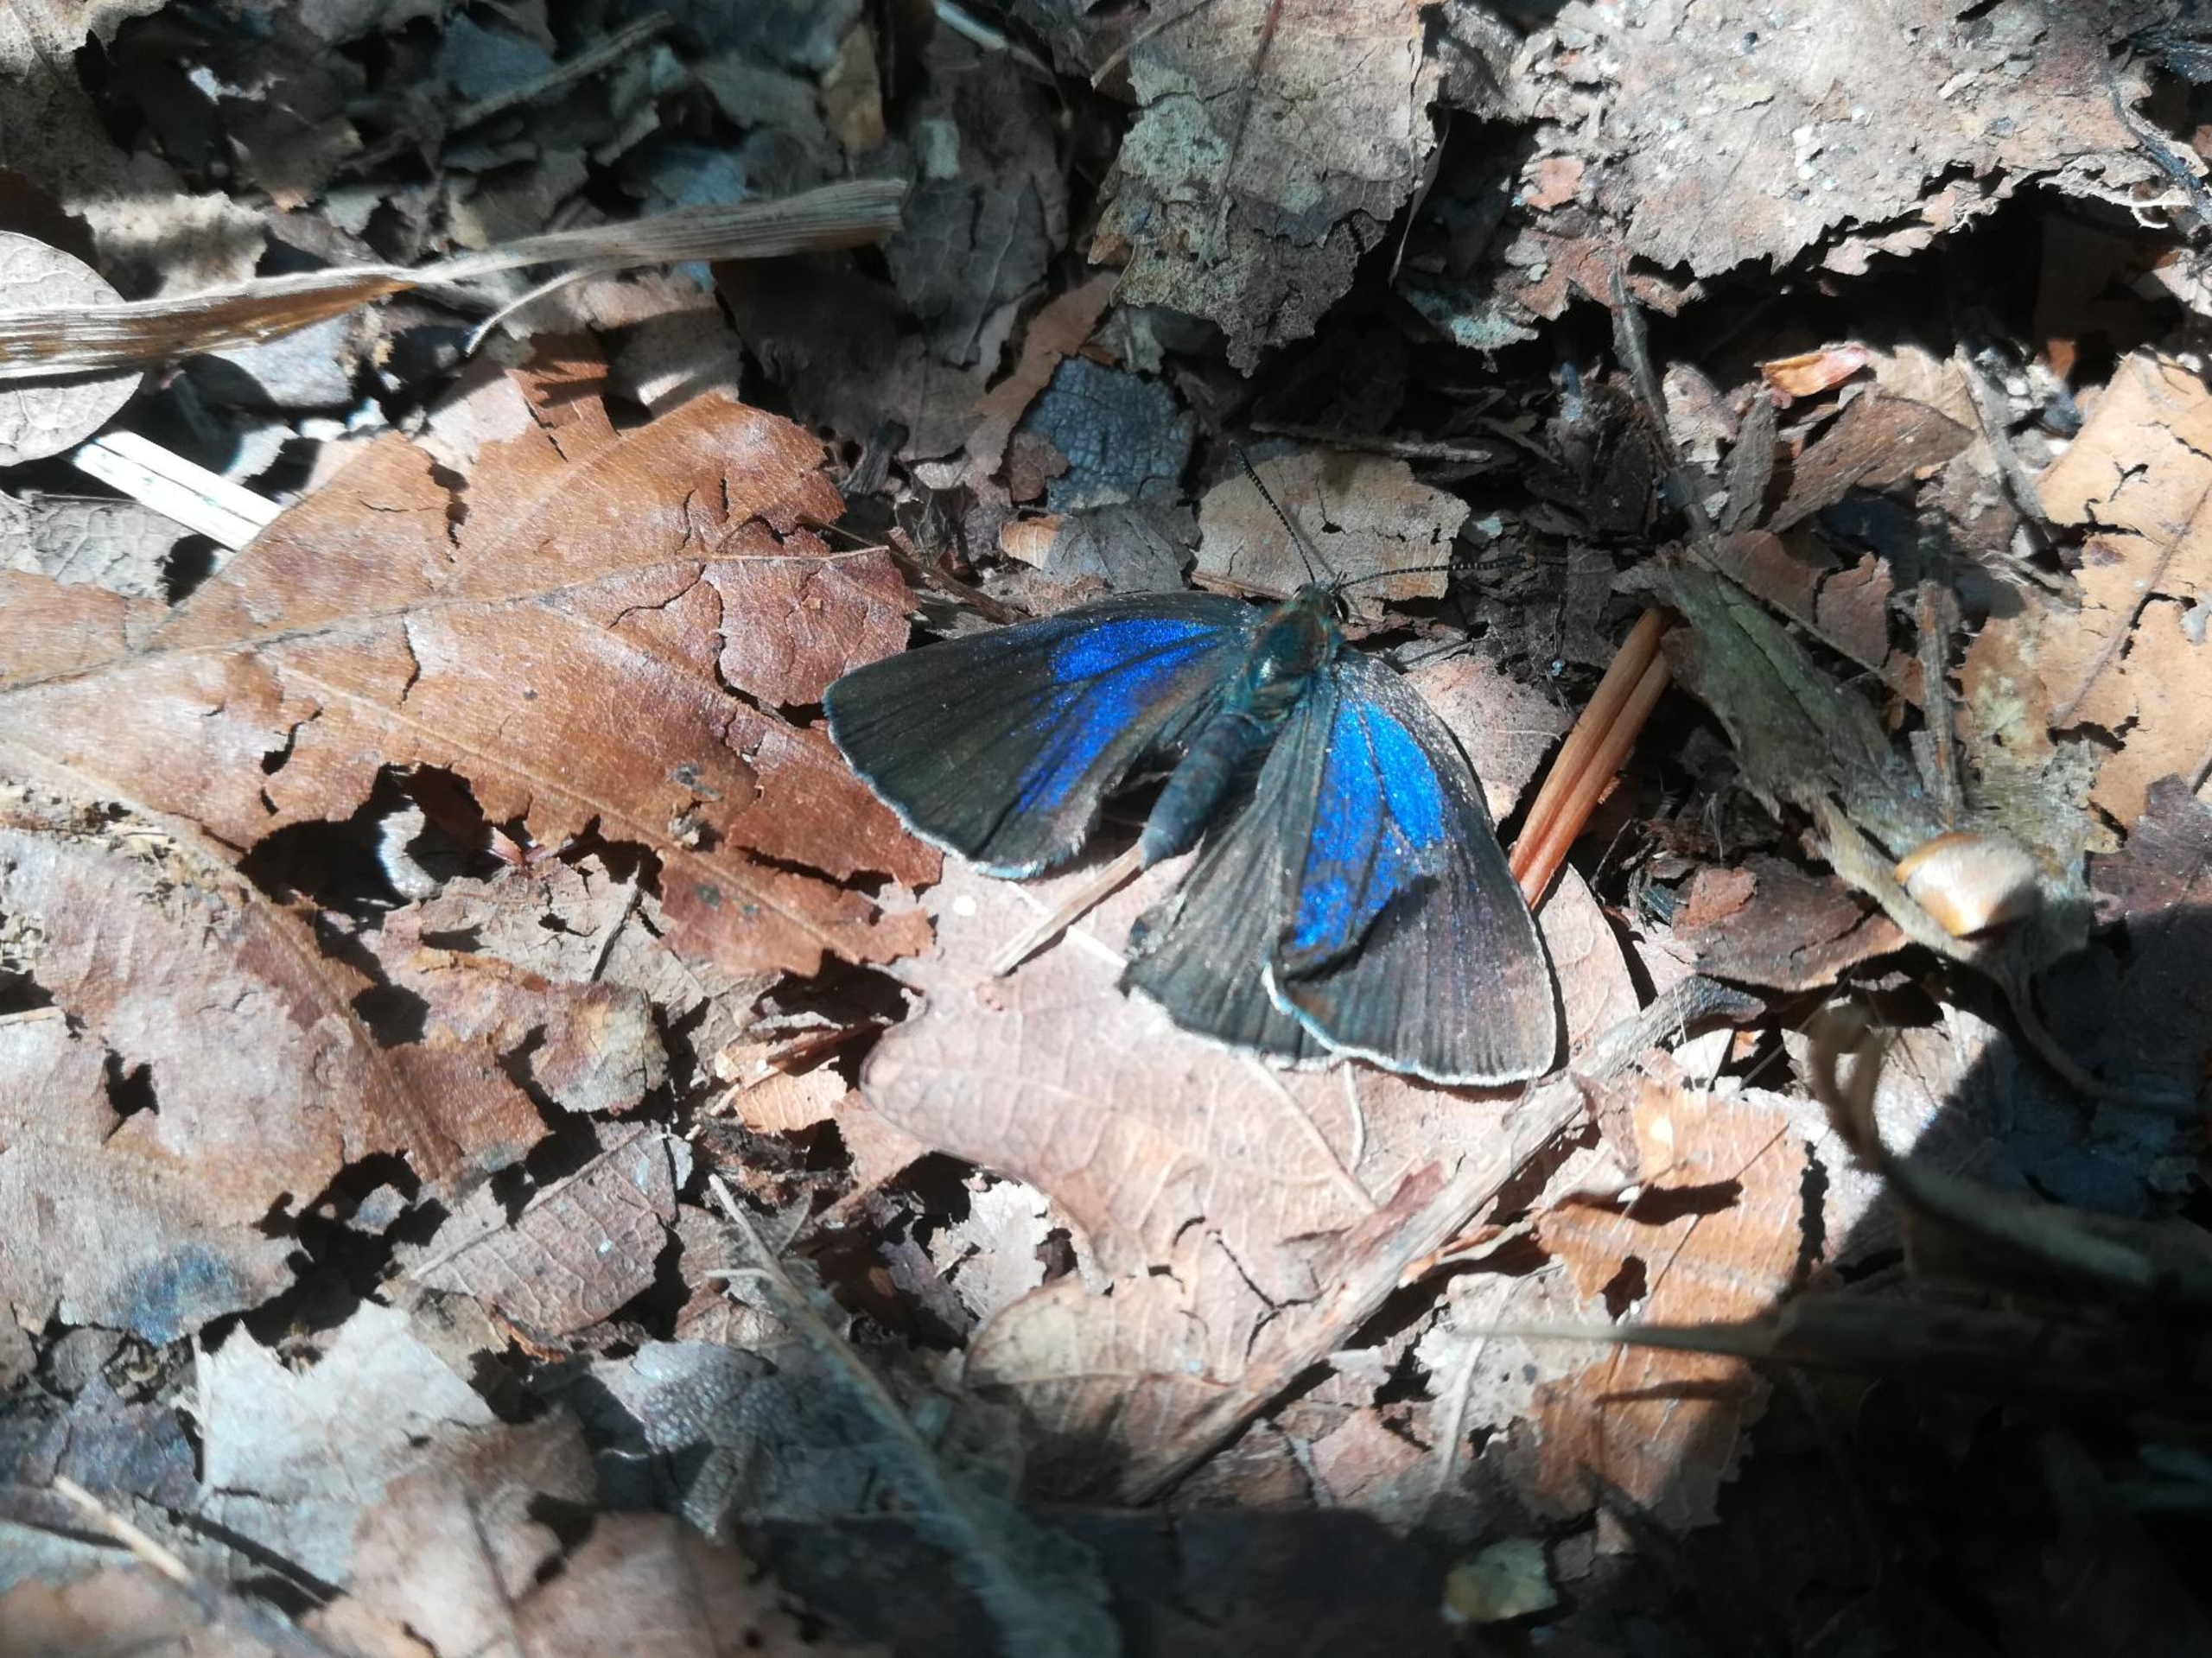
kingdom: Animalia
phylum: Arthropoda
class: Insecta
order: Lepidoptera
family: Lycaenidae
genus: Quercusia
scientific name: Quercusia quercus
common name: Blåhale
